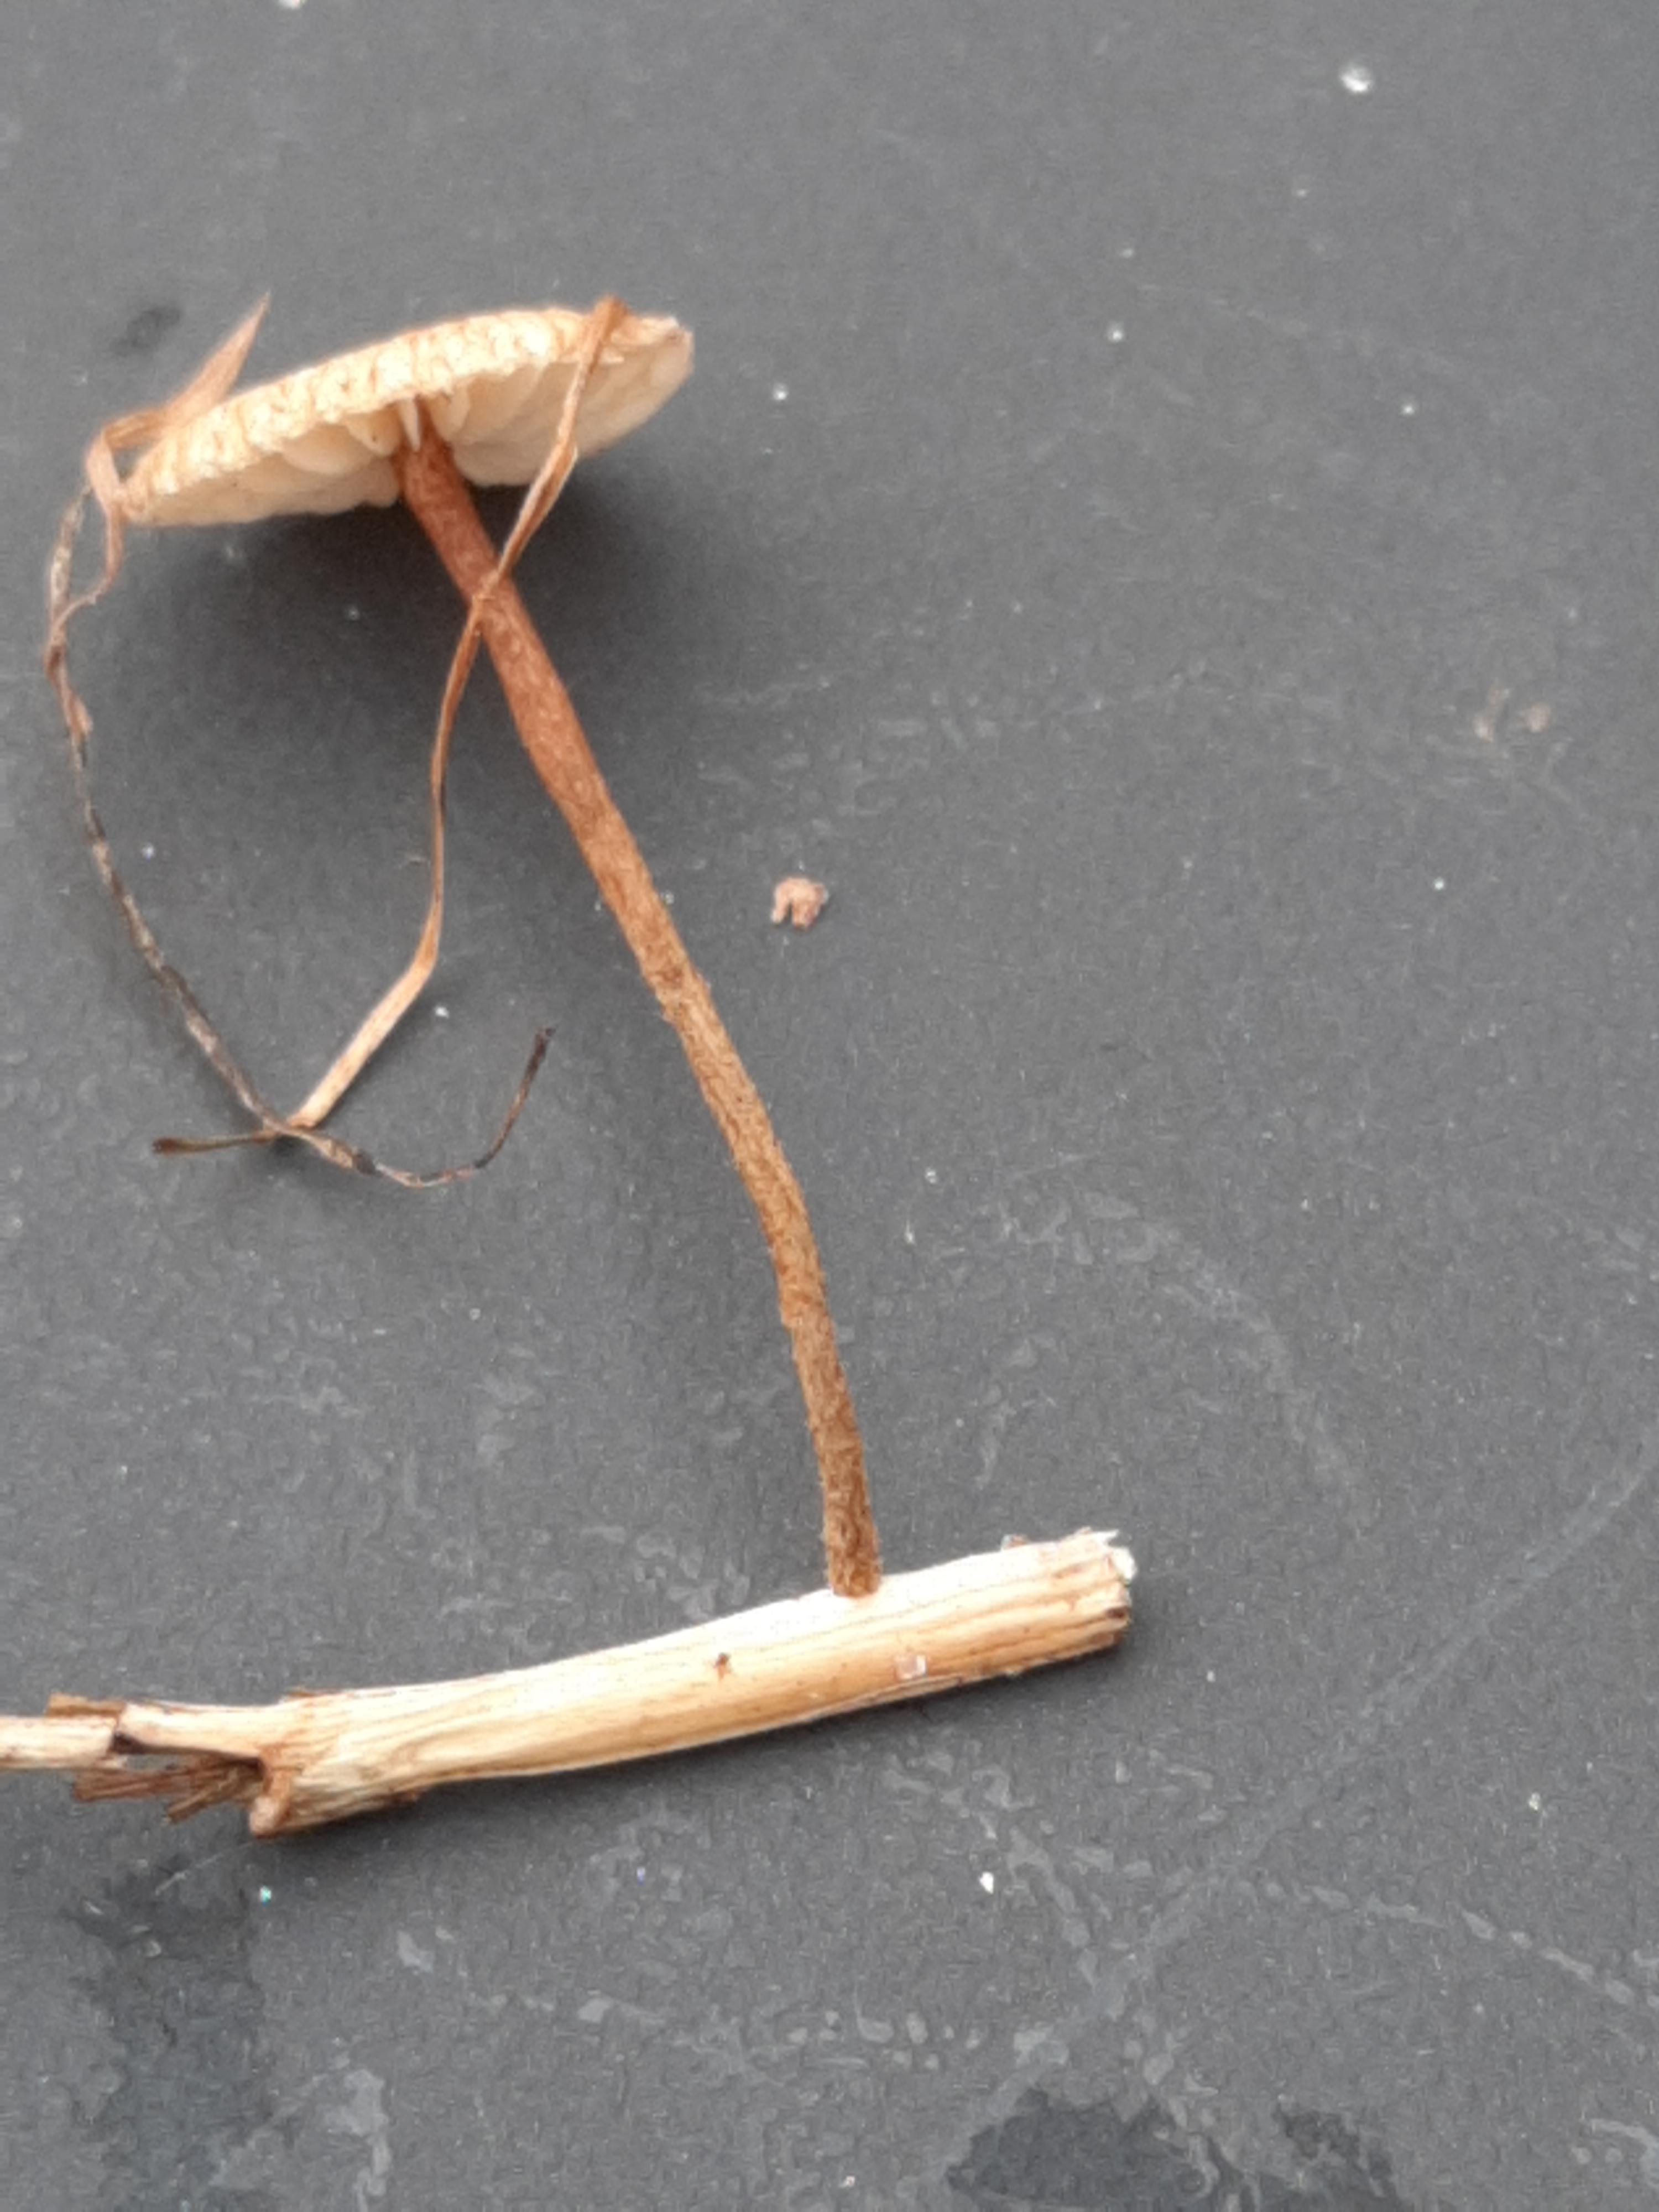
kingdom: Fungi
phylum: Basidiomycota
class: Agaricomycetes
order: Agaricales
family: Marasmiaceae
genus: Crinipellis
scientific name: Crinipellis scabella
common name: børstefod
